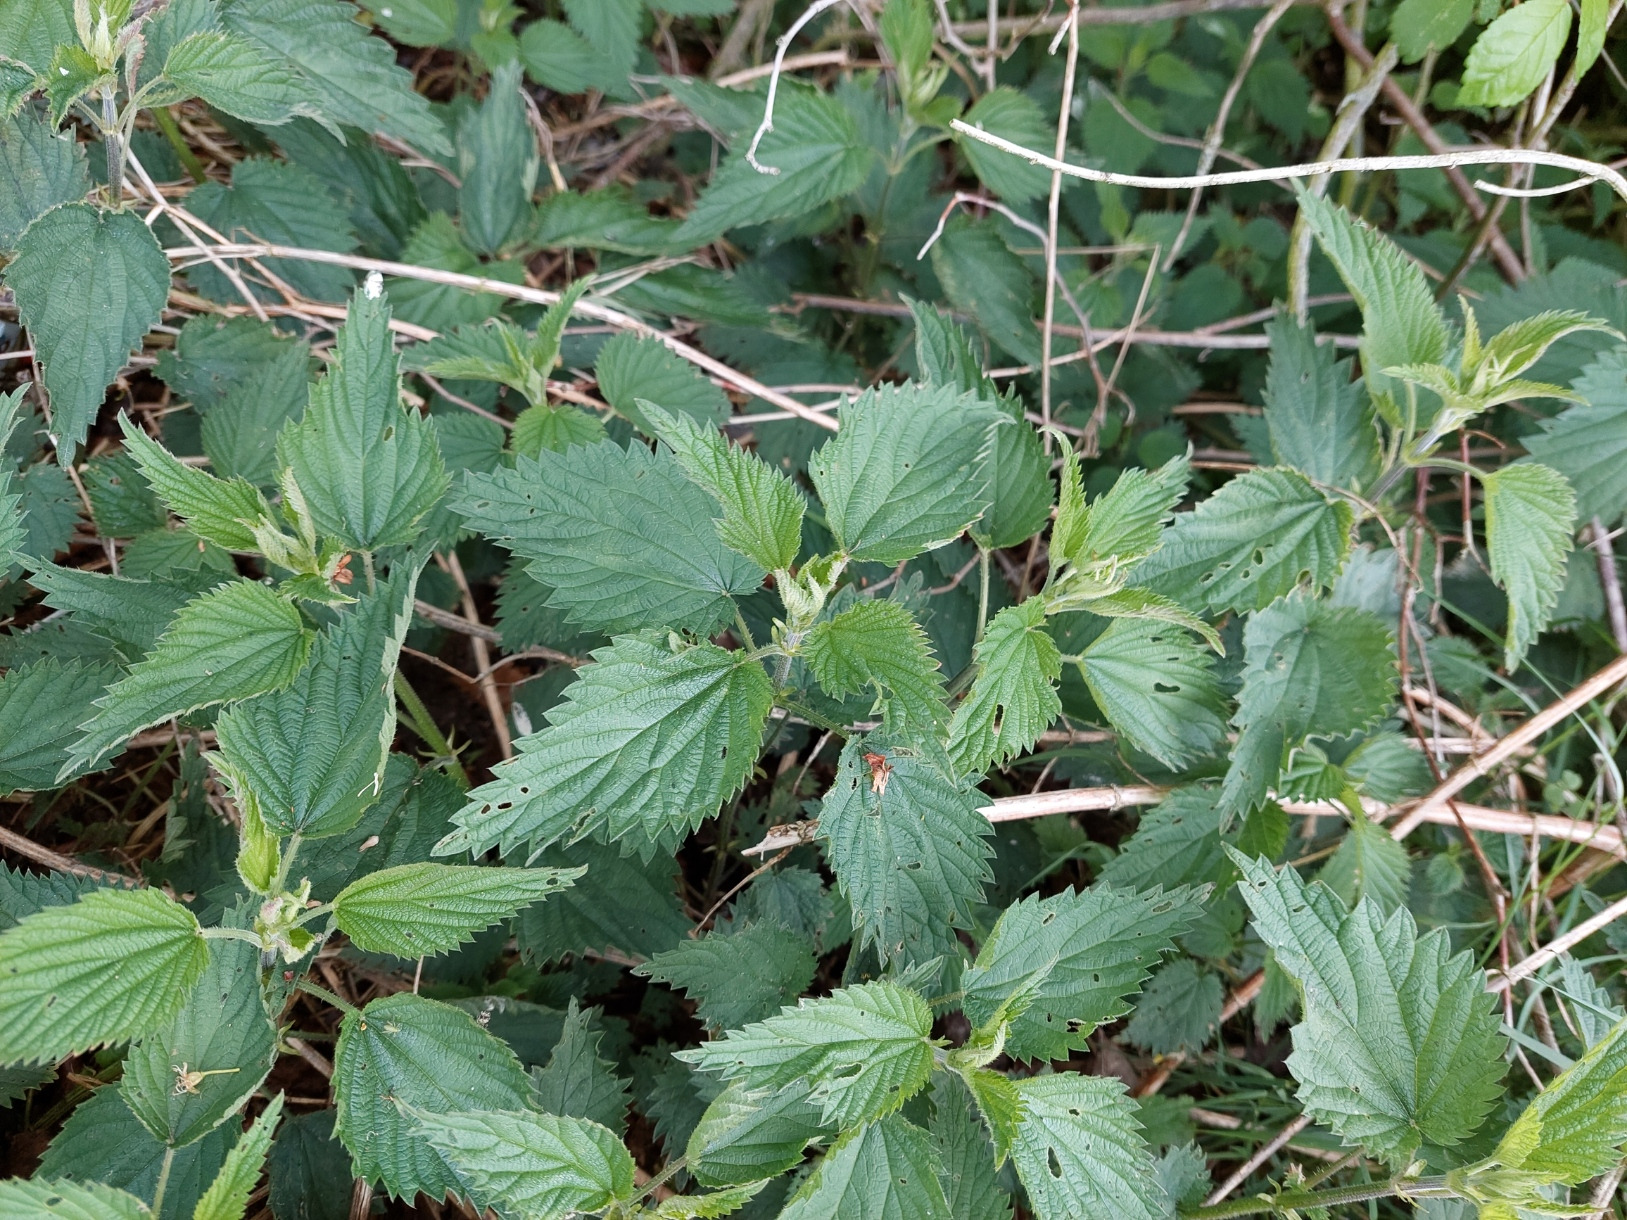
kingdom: Plantae
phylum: Tracheophyta
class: Magnoliopsida
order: Rosales
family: Urticaceae
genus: Urtica
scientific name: Urtica dioica
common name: Stor nælde
